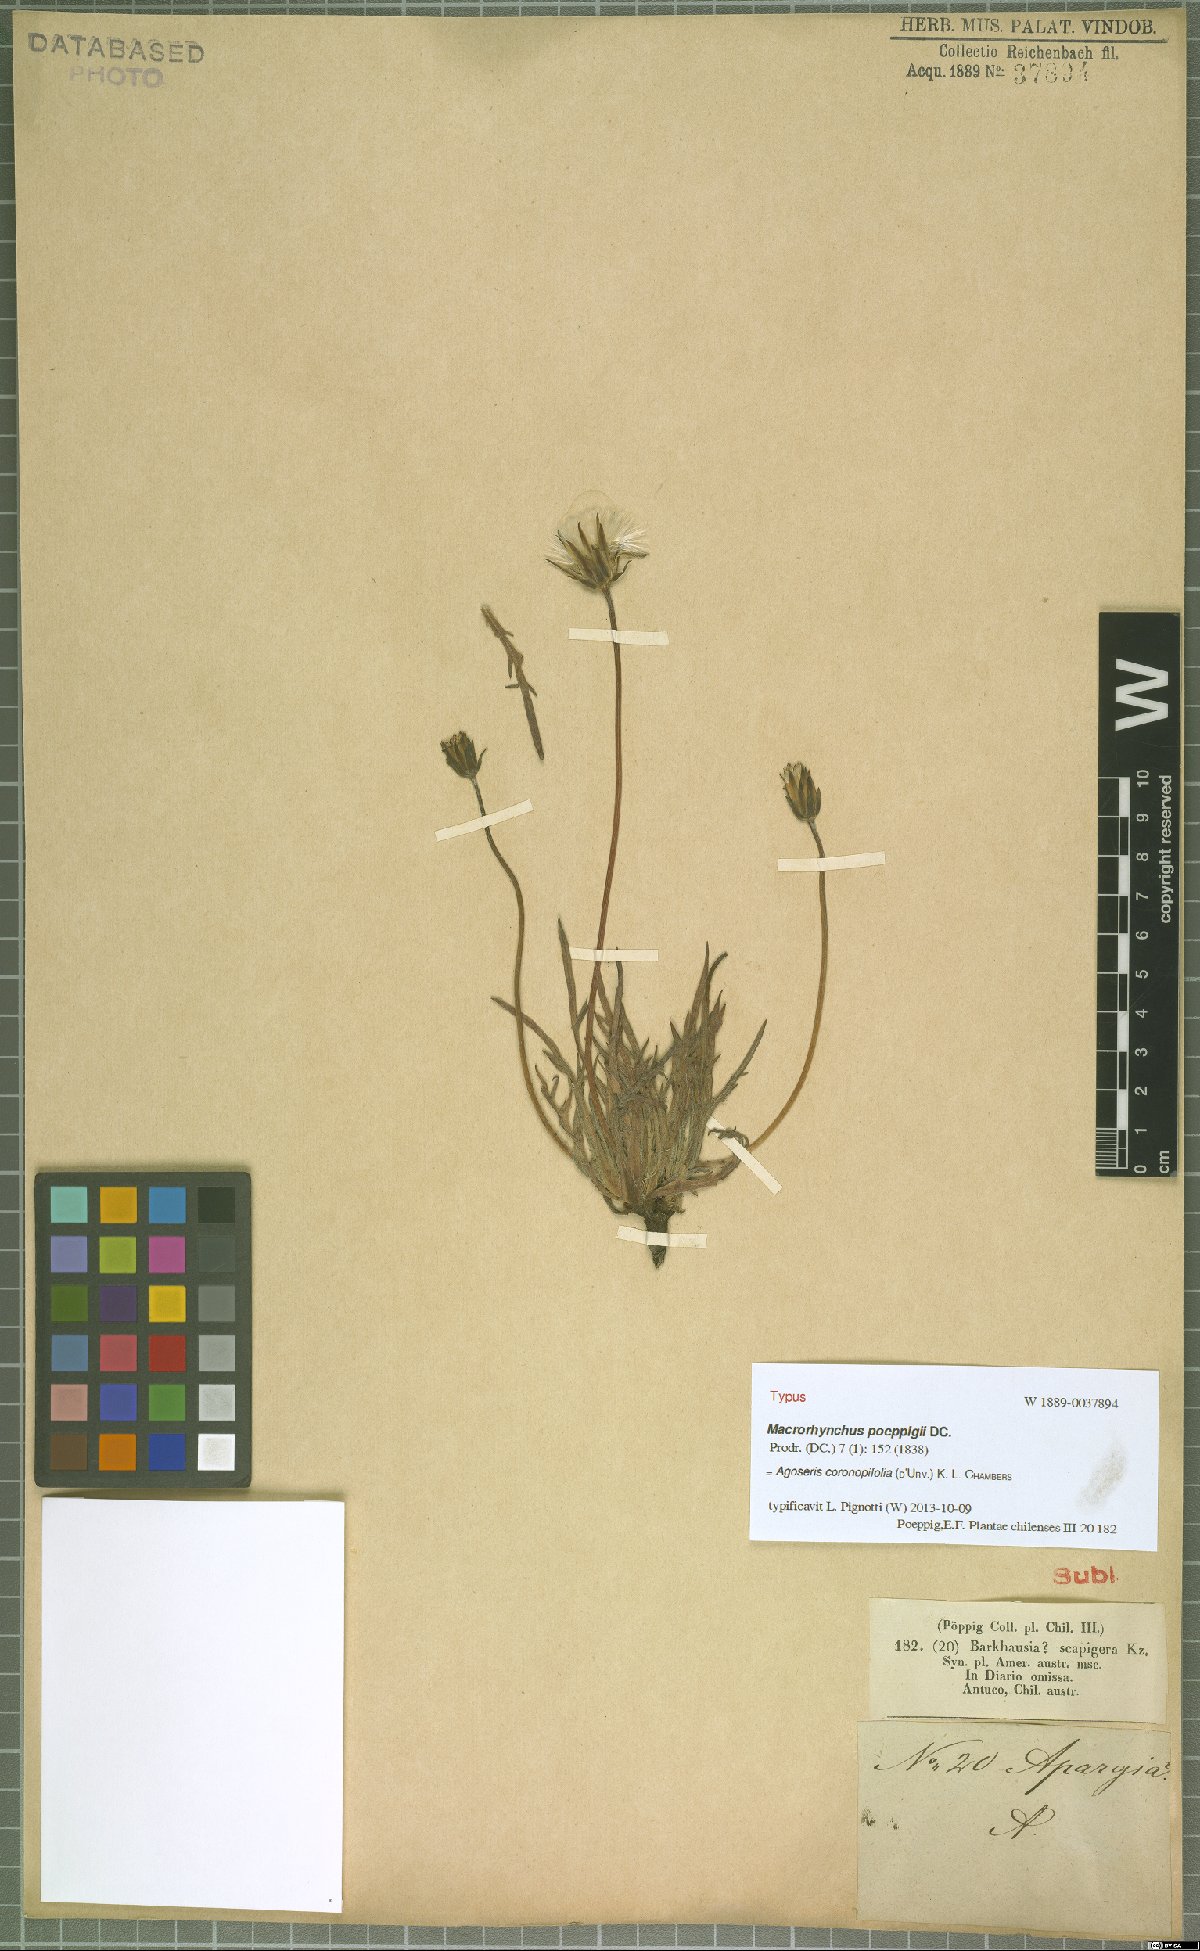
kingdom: Plantae
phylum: Tracheophyta
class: Magnoliopsida
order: Asterales
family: Asteraceae
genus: Agoseris
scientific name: Agoseris coronopifolia
